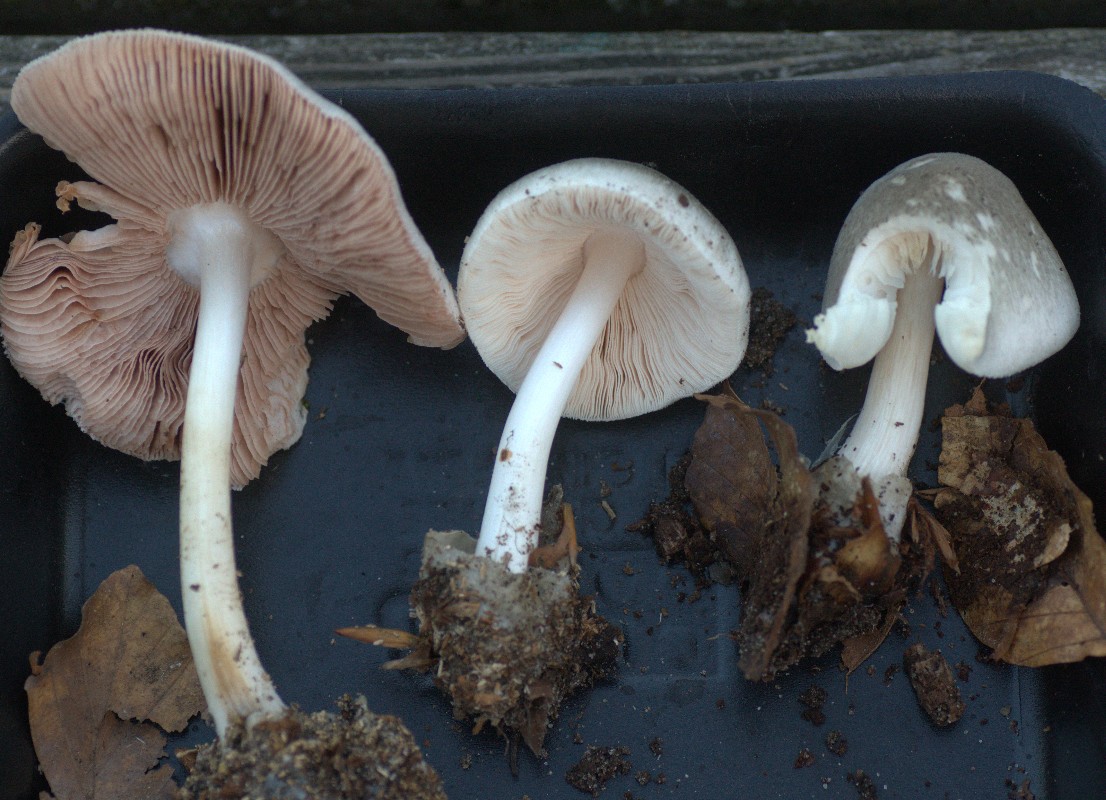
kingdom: Fungi
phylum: Basidiomycota
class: Agaricomycetes
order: Agaricales
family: Pluteaceae
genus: Volvariella
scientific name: Volvariella caesiotincta
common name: ved-posesvamp
